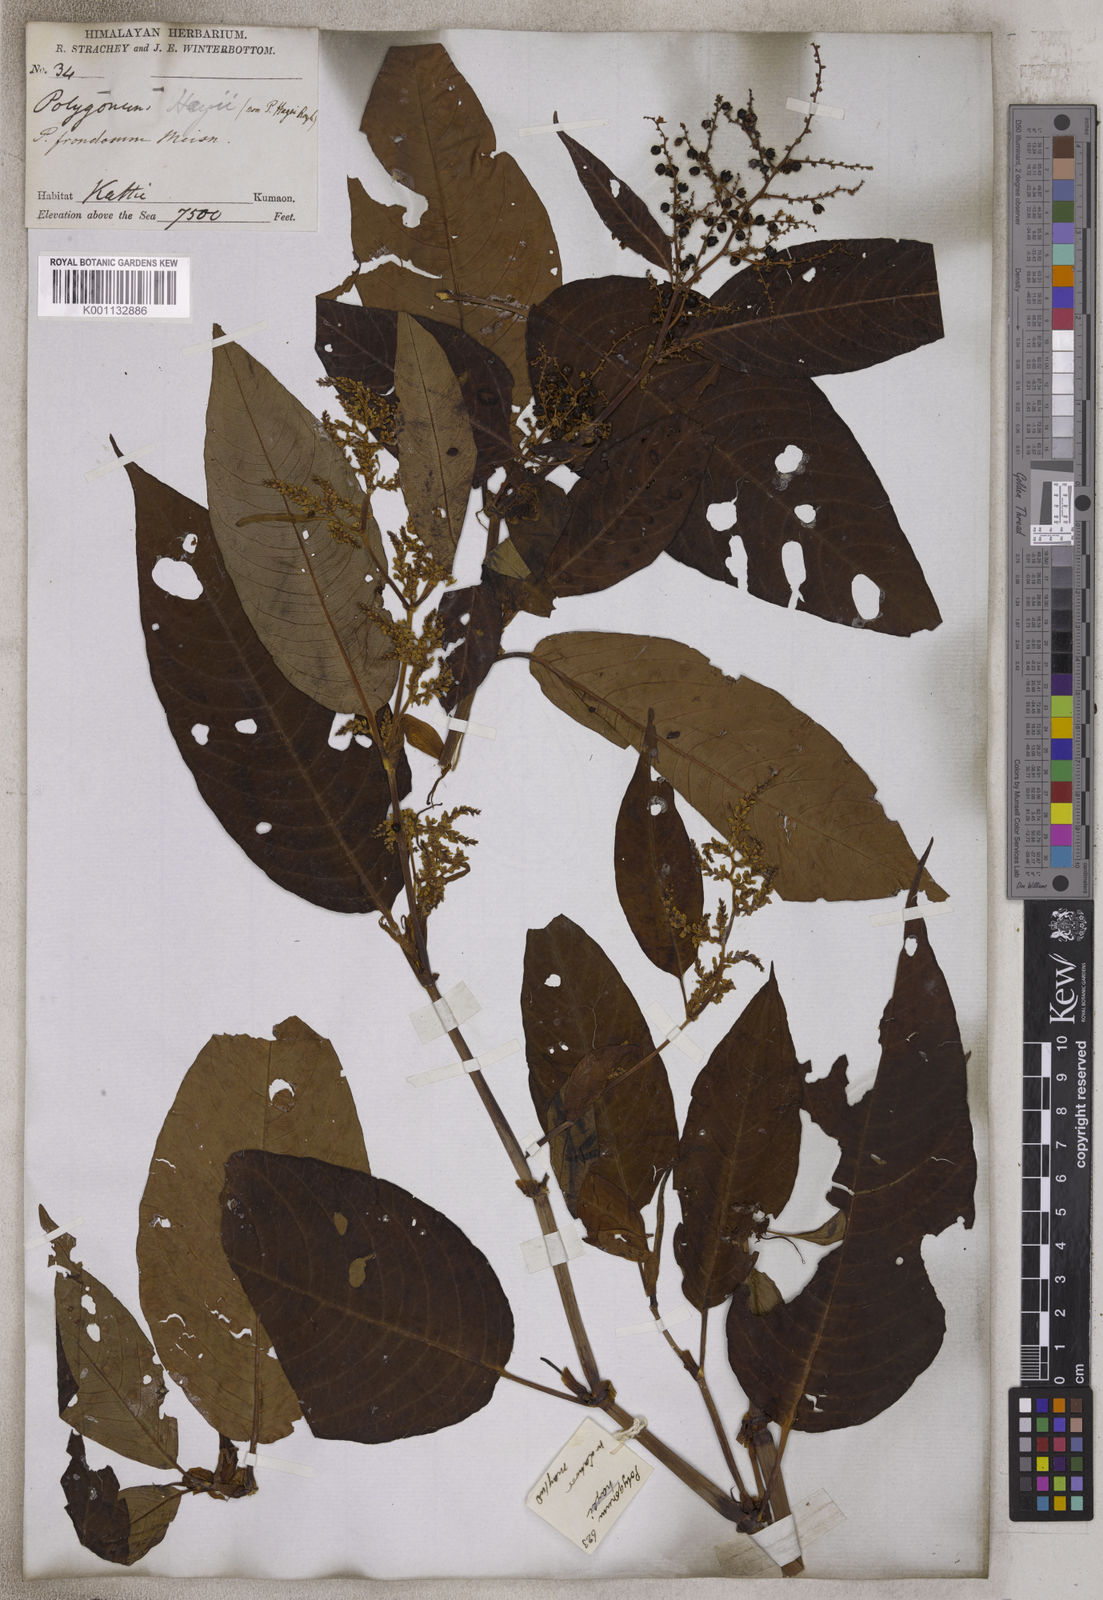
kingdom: Plantae
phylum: Tracheophyta
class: Magnoliopsida
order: Caryophyllales
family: Polygonaceae
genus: Polygonum
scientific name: Polygonum
